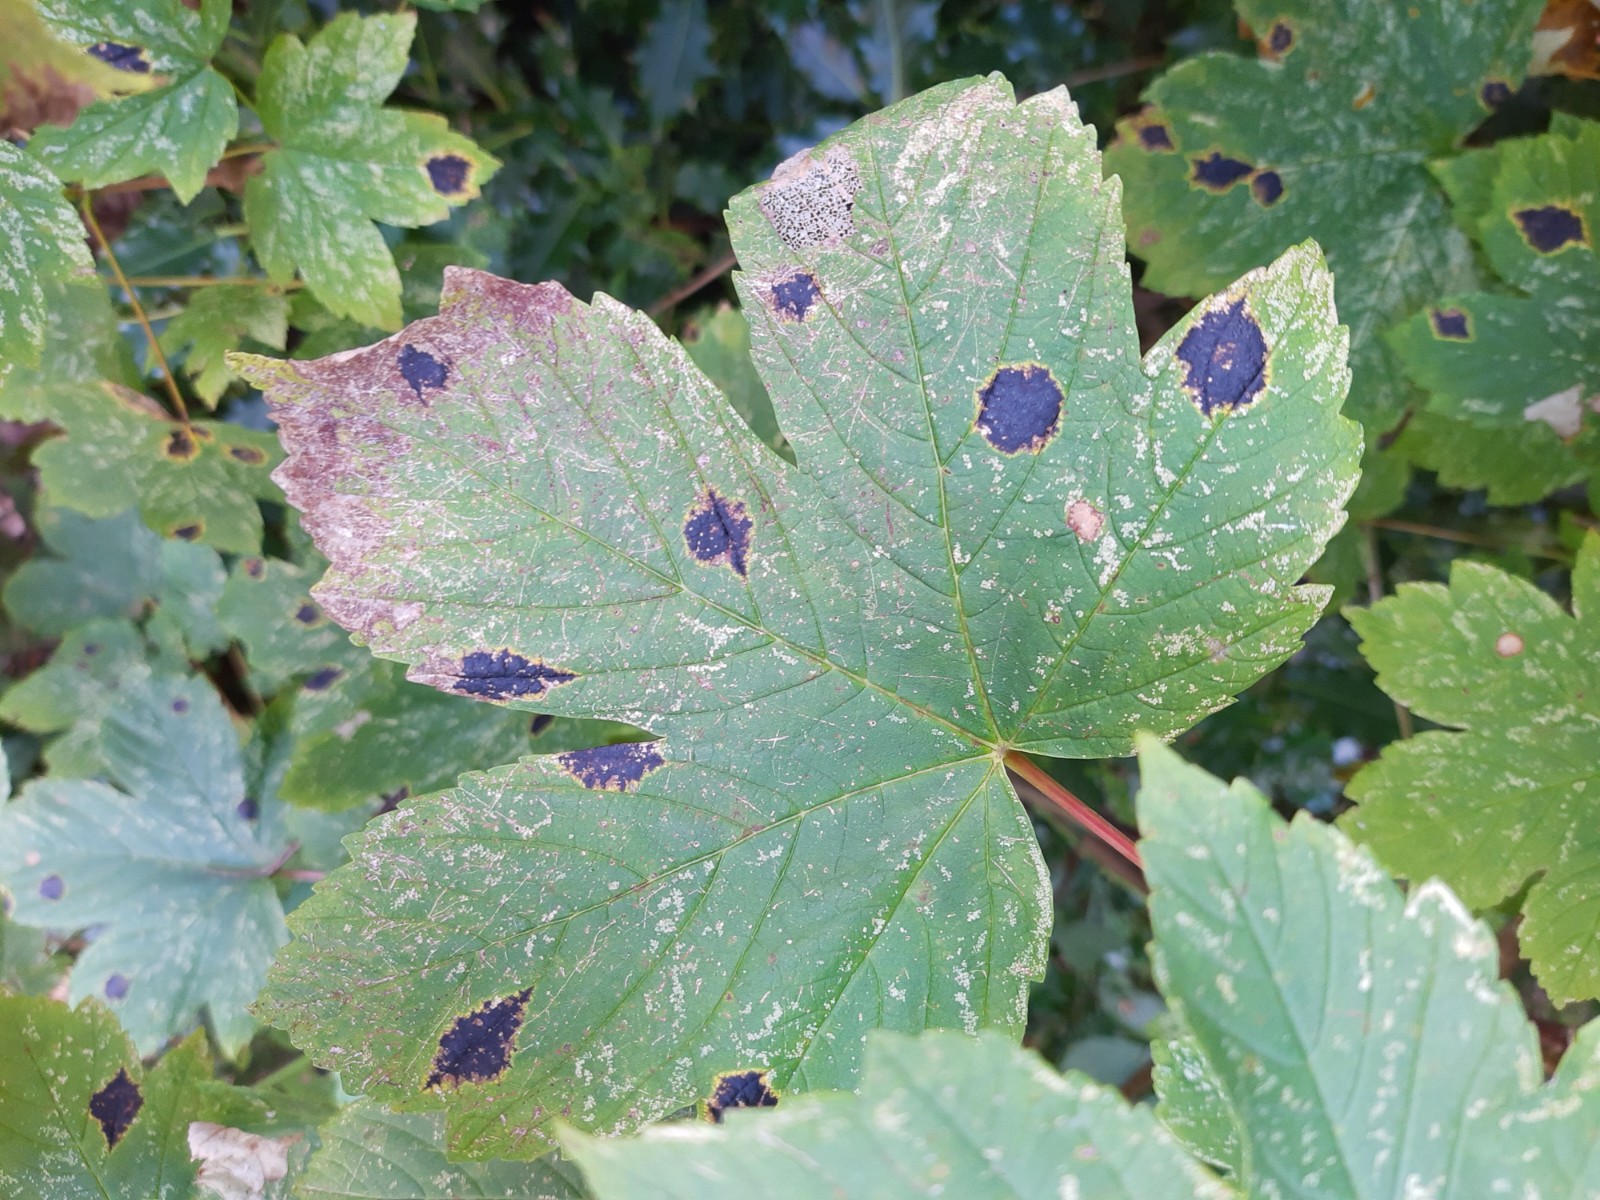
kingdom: Fungi
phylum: Ascomycota
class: Leotiomycetes
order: Rhytismatales
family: Rhytismataceae
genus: Rhytisma
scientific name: Rhytisma acerinum
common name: ahorn-rynkeplet
